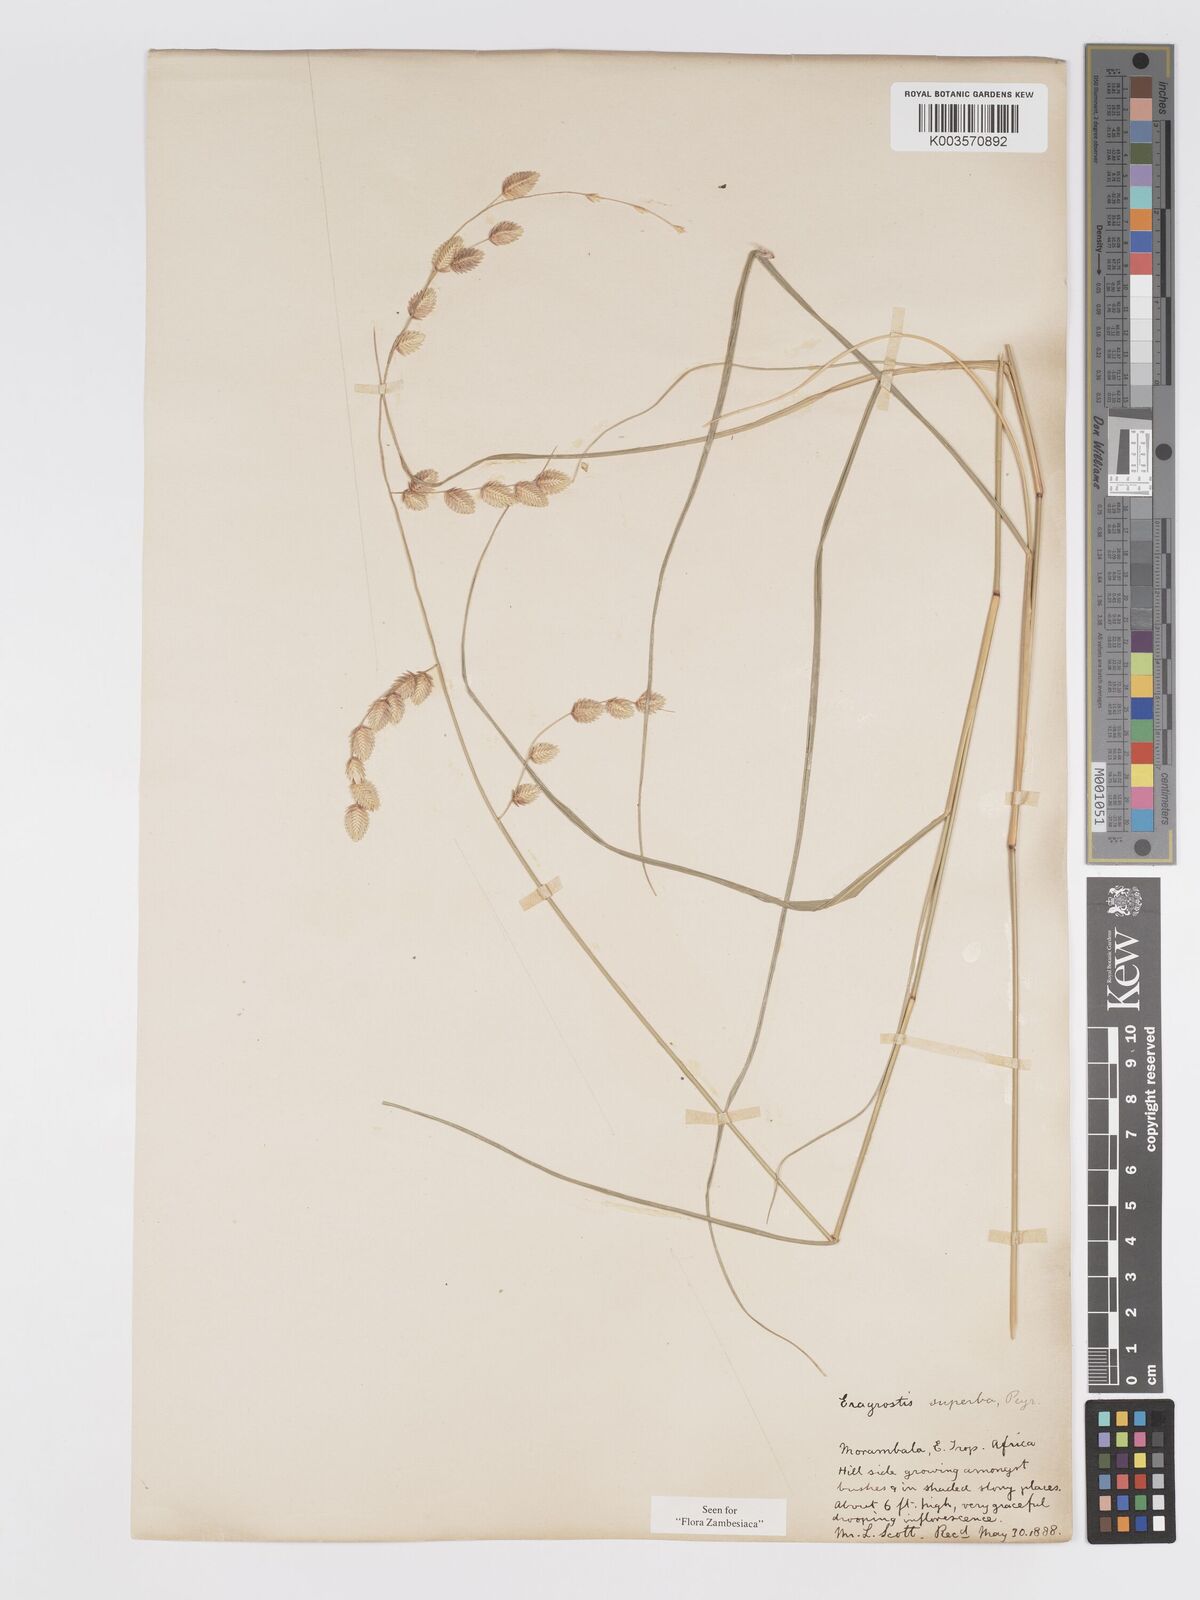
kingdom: Plantae
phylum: Tracheophyta
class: Liliopsida
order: Poales
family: Poaceae
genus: Eragrostis
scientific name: Eragrostis superba
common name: Wilman lovegrass
